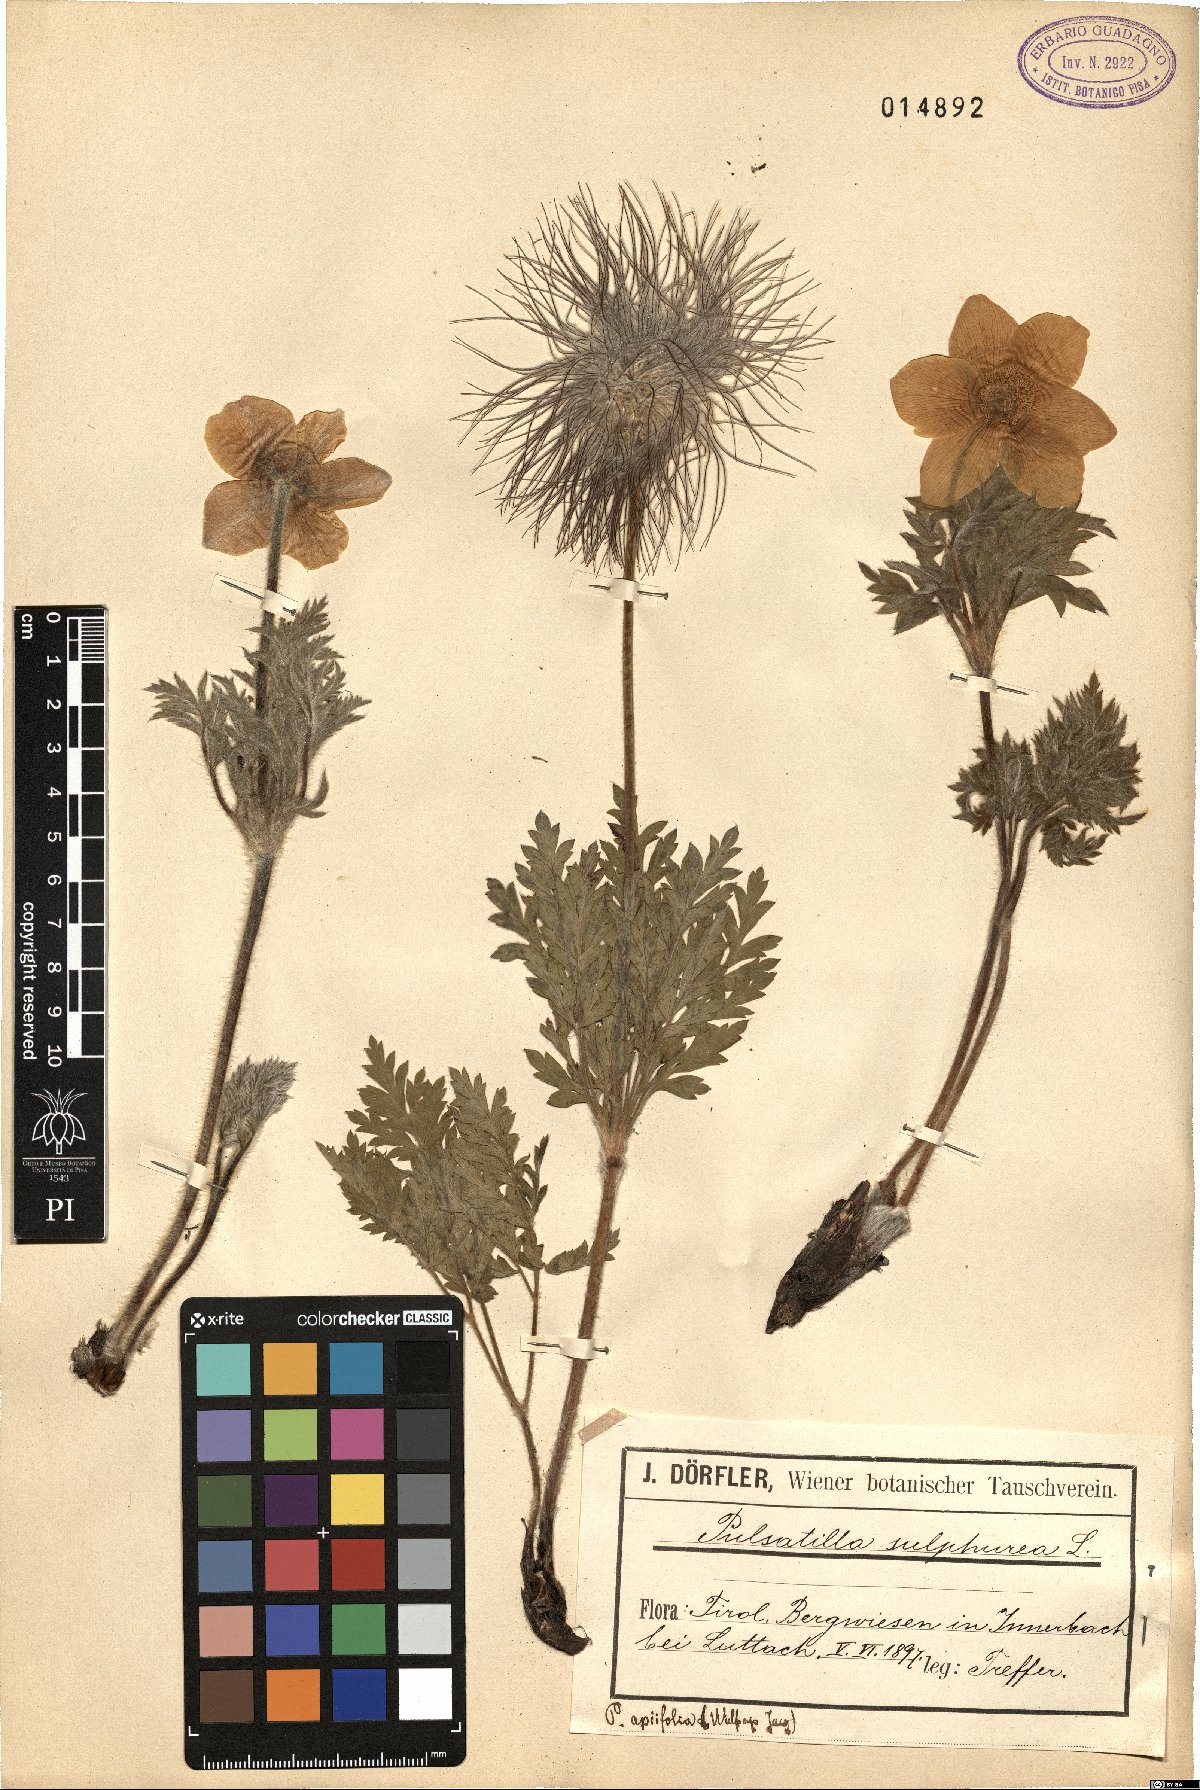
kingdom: Plantae
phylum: Tracheophyta
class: Magnoliopsida
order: Ranunculales
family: Ranunculaceae
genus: Pulsatilla
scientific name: Pulsatilla alpina
